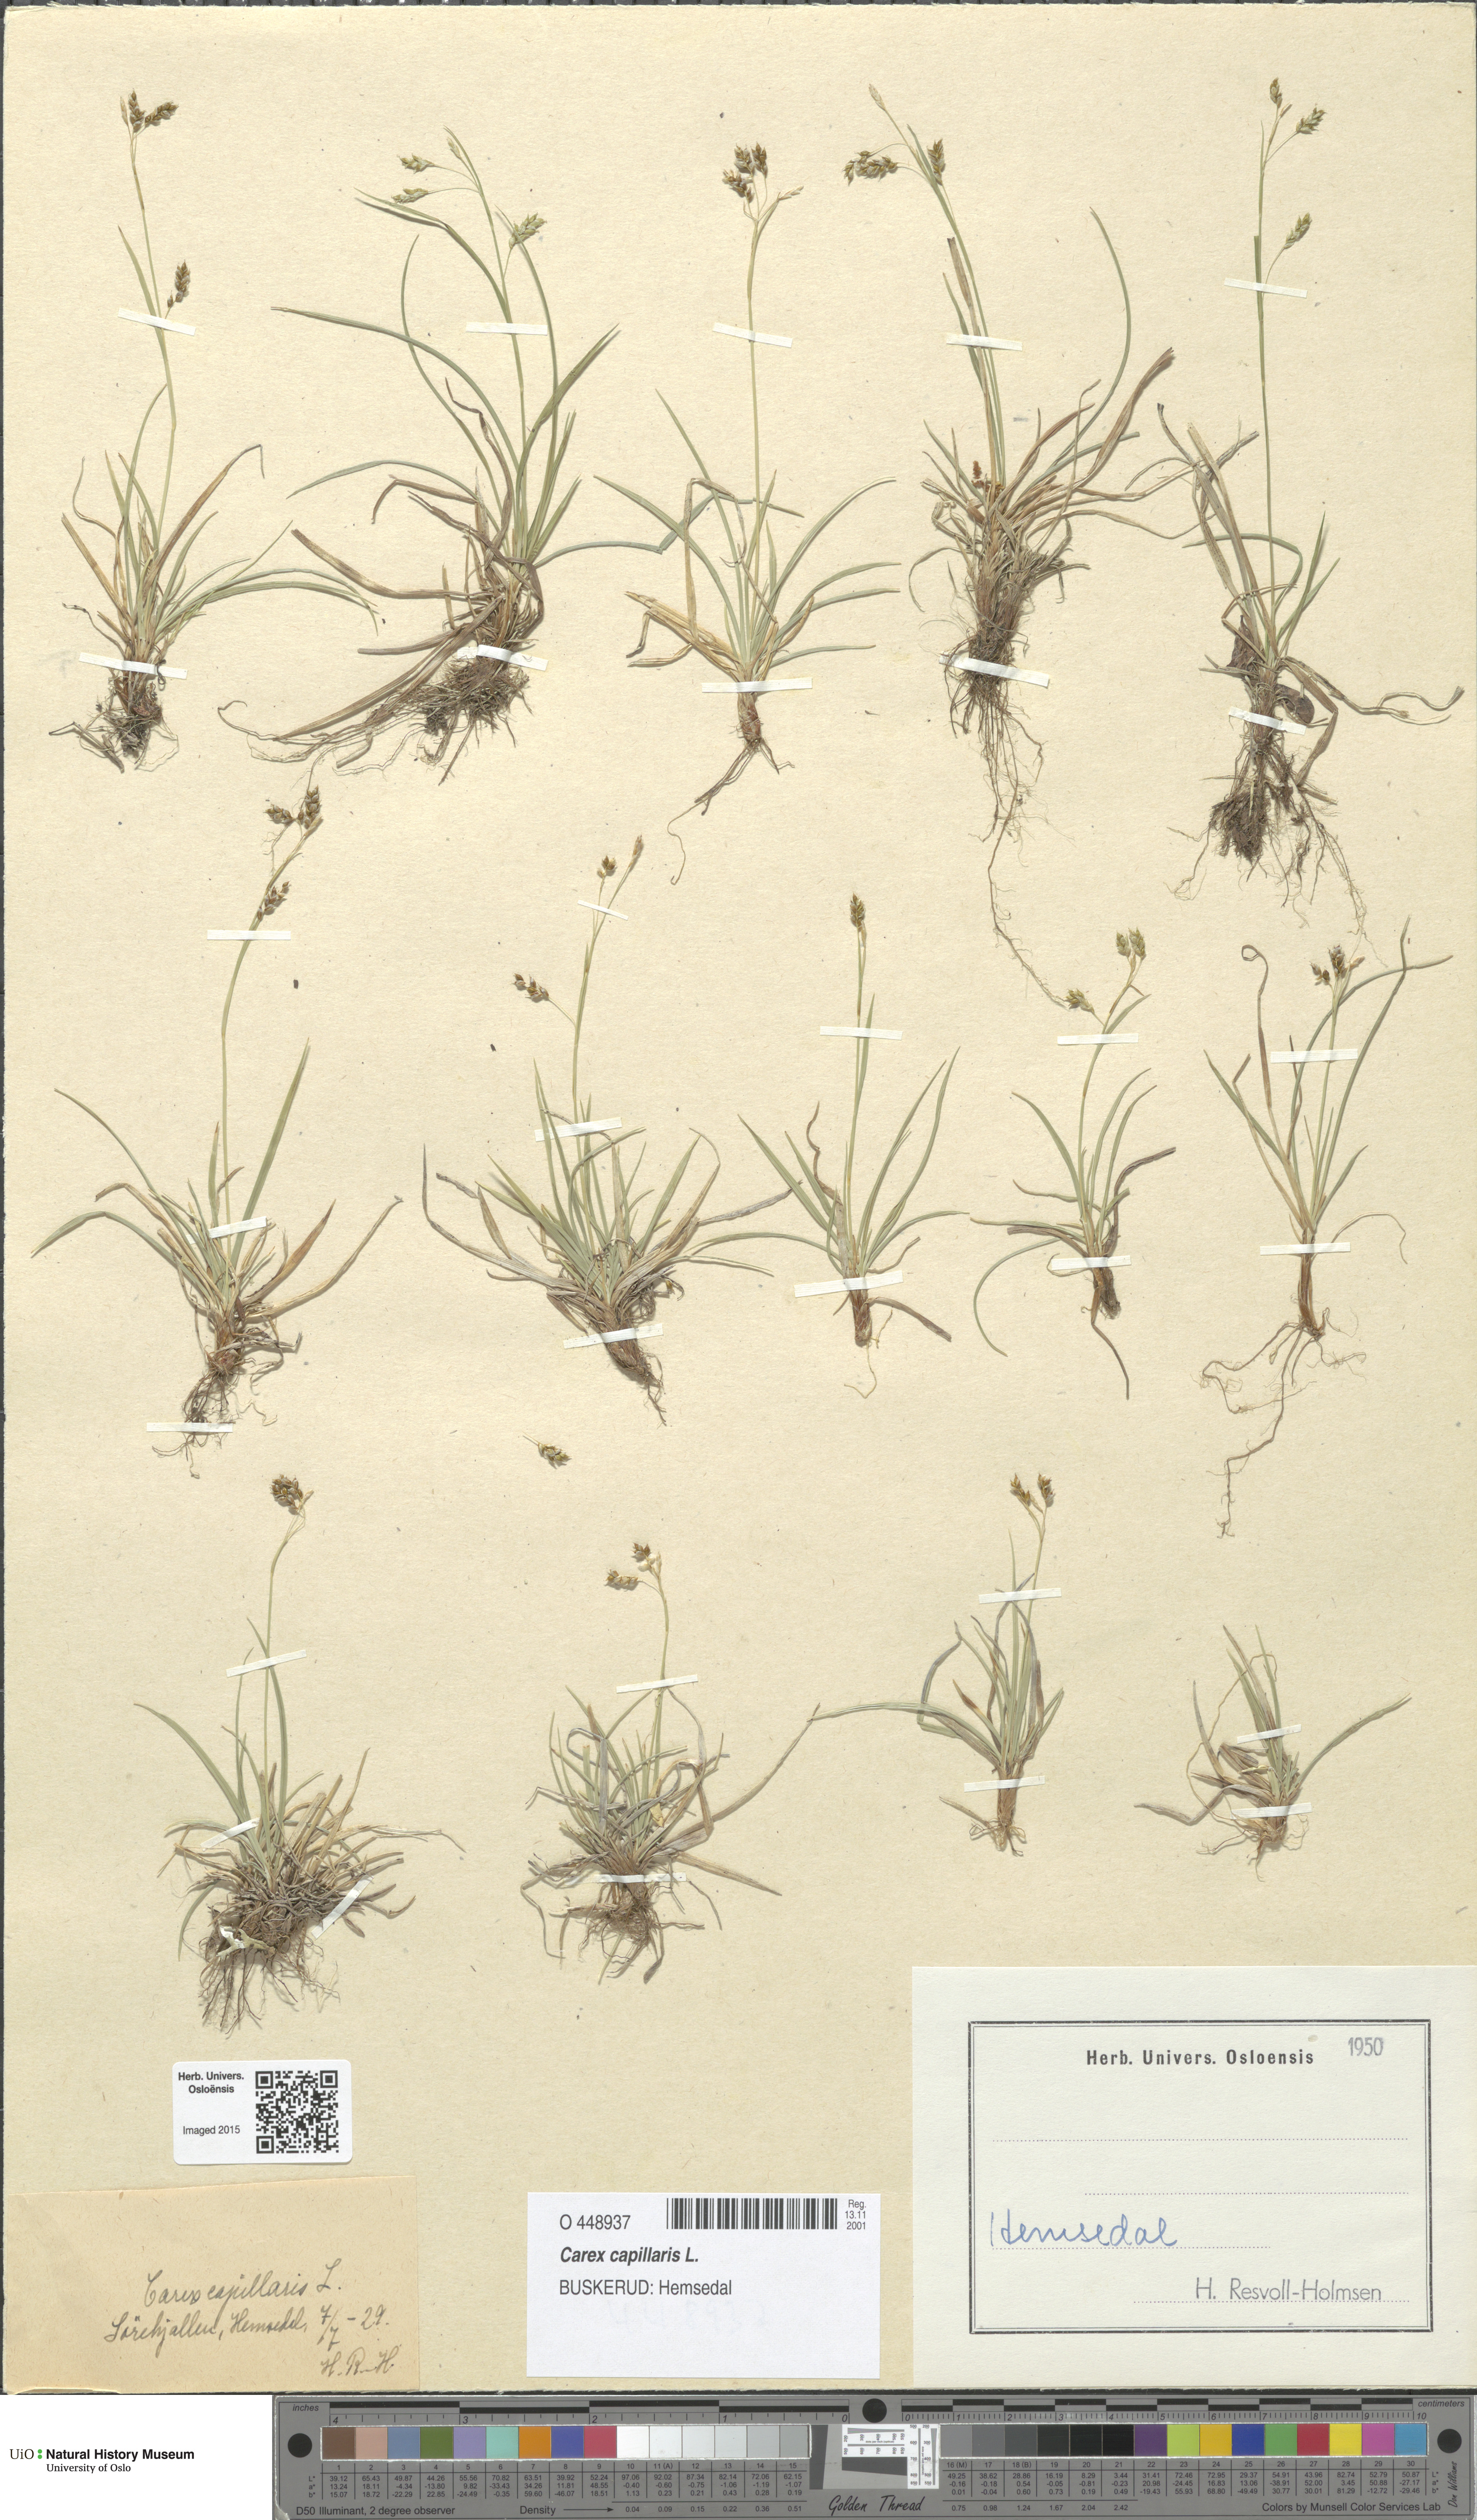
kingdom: Plantae
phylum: Tracheophyta
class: Liliopsida
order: Poales
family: Cyperaceae
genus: Carex
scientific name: Carex capillaris
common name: Hair sedge
